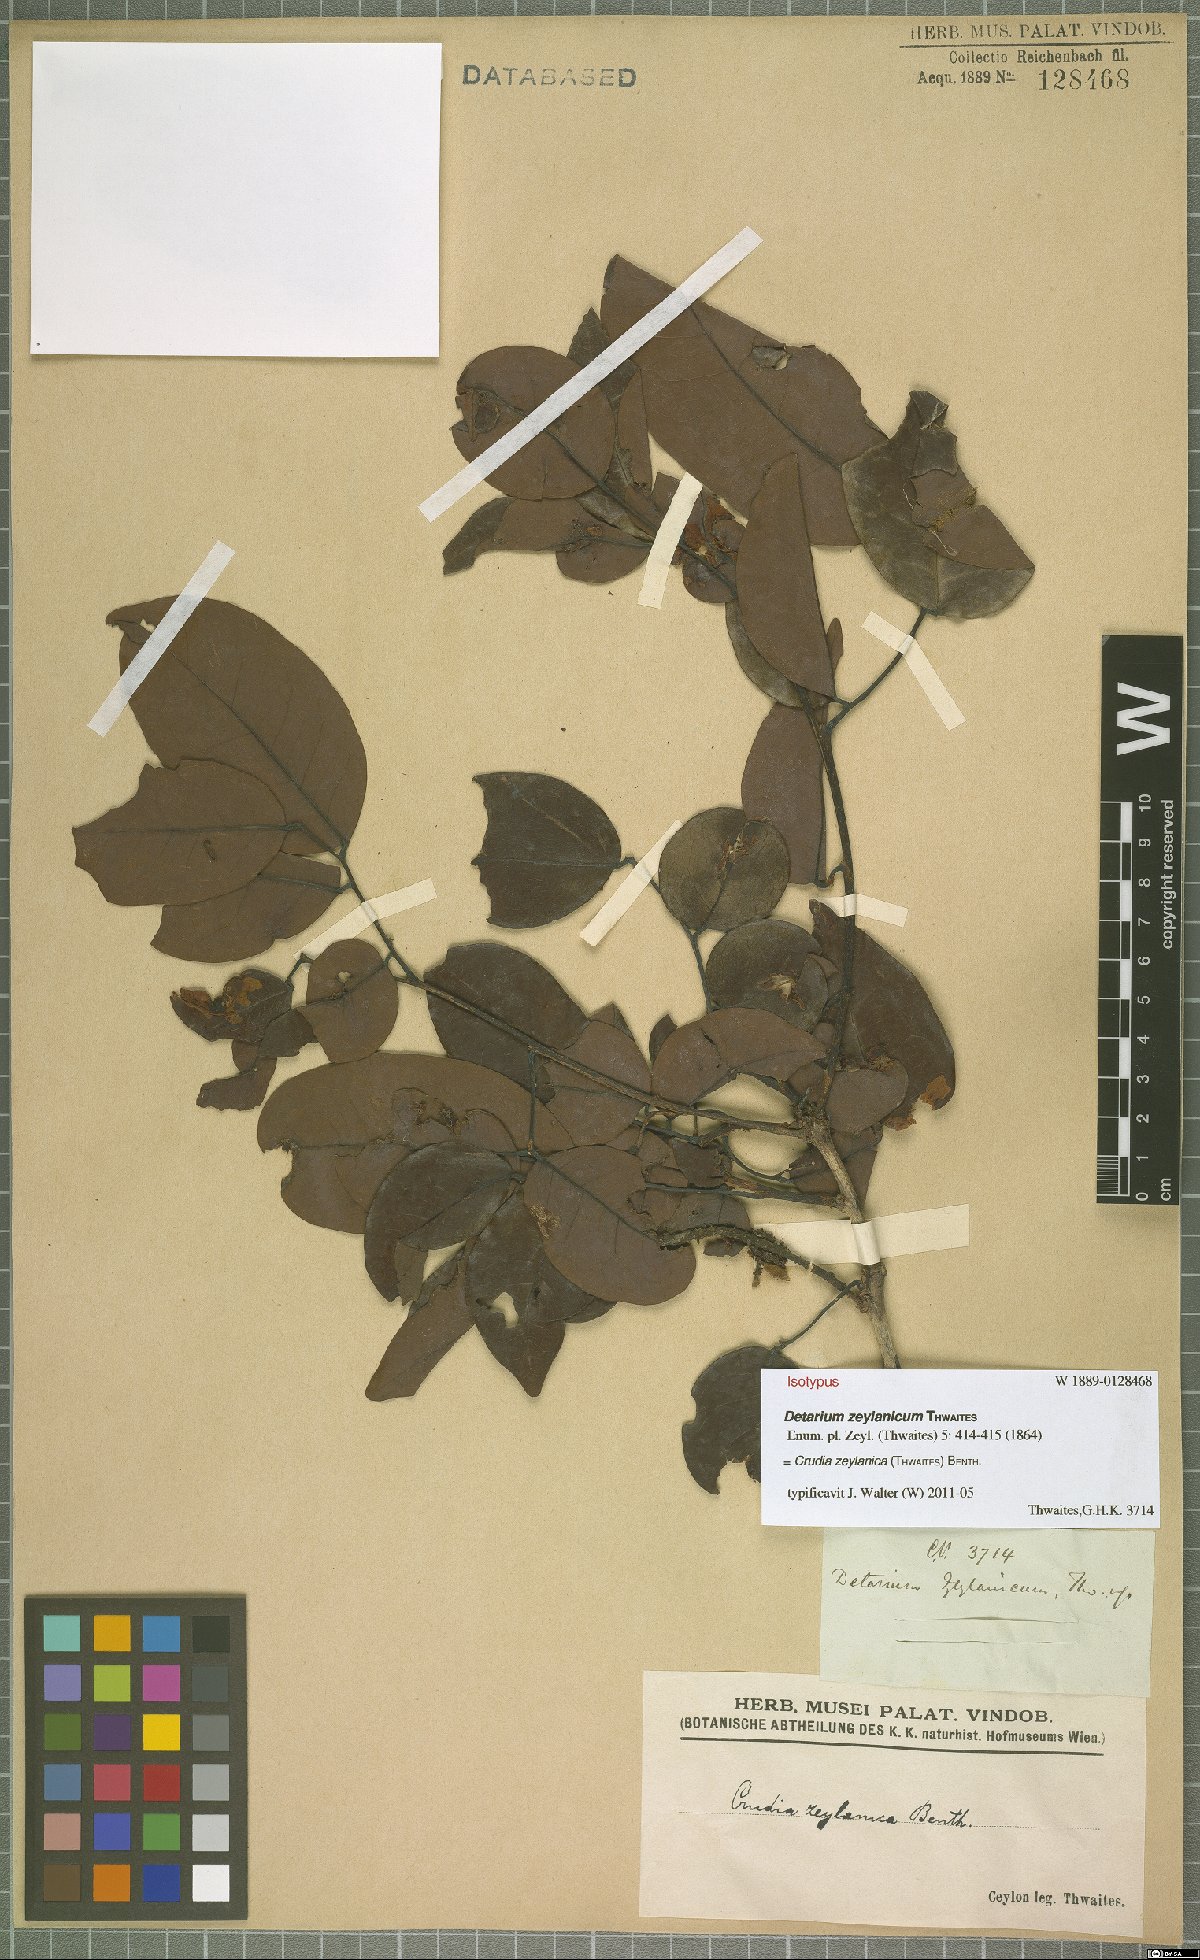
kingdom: Plantae
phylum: Tracheophyta
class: Magnoliopsida
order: Fabales
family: Fabaceae
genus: Crudia
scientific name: Crudia zeylanica
